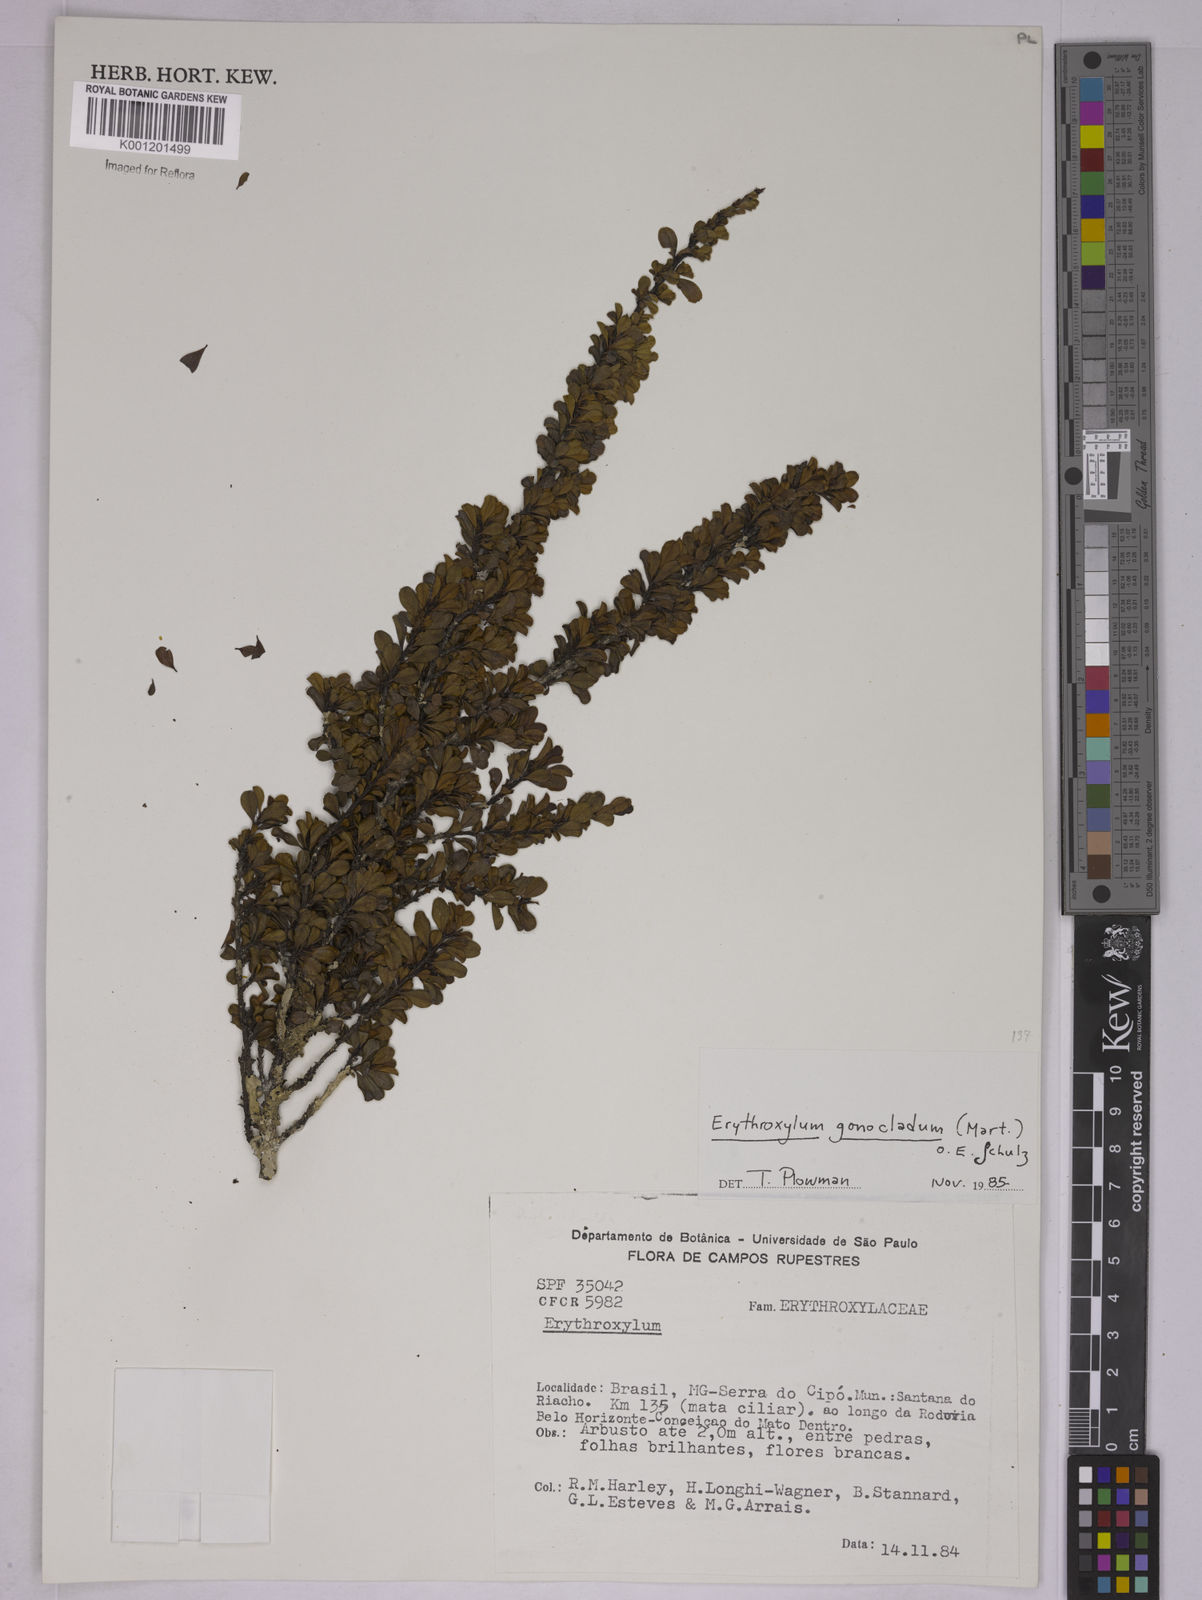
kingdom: Plantae
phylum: Tracheophyta
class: Magnoliopsida
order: Malpighiales
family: Erythroxylaceae
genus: Erythroxylum
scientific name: Erythroxylum
